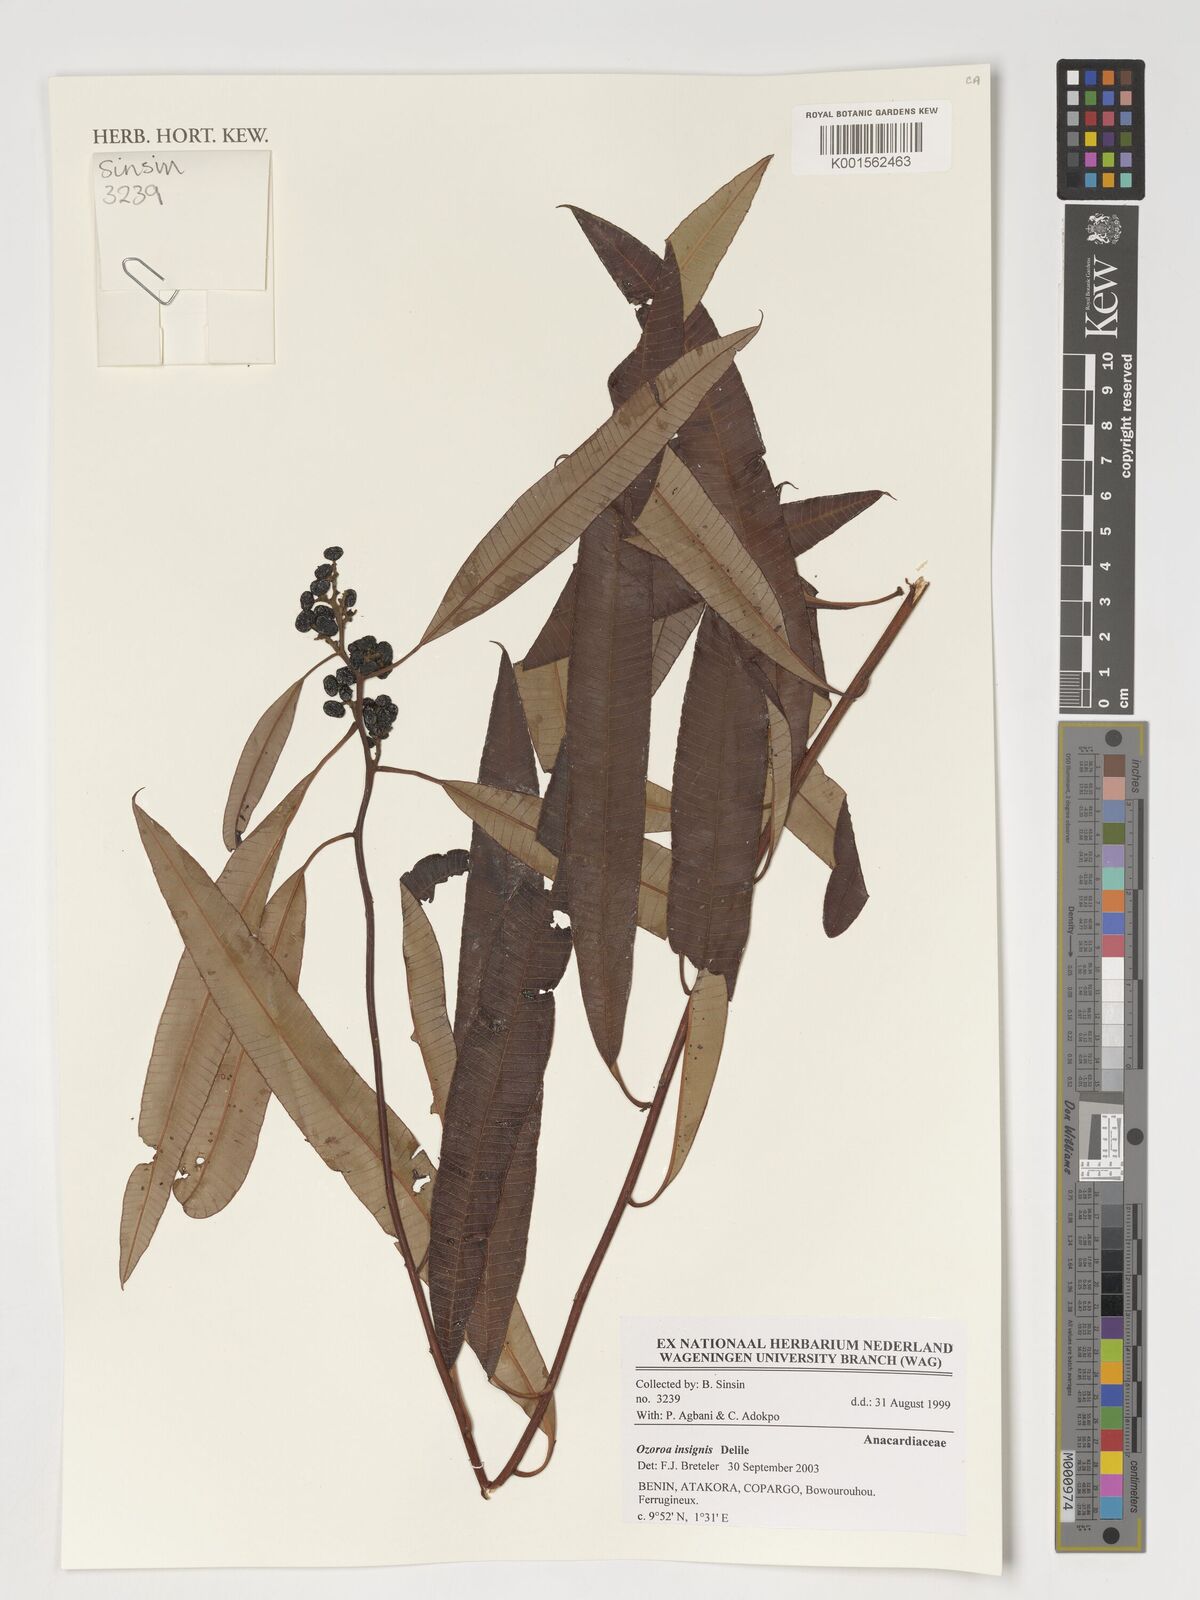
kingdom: Plantae
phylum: Tracheophyta
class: Magnoliopsida
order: Sapindales
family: Anacardiaceae
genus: Ozoroa
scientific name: Ozoroa insignis
